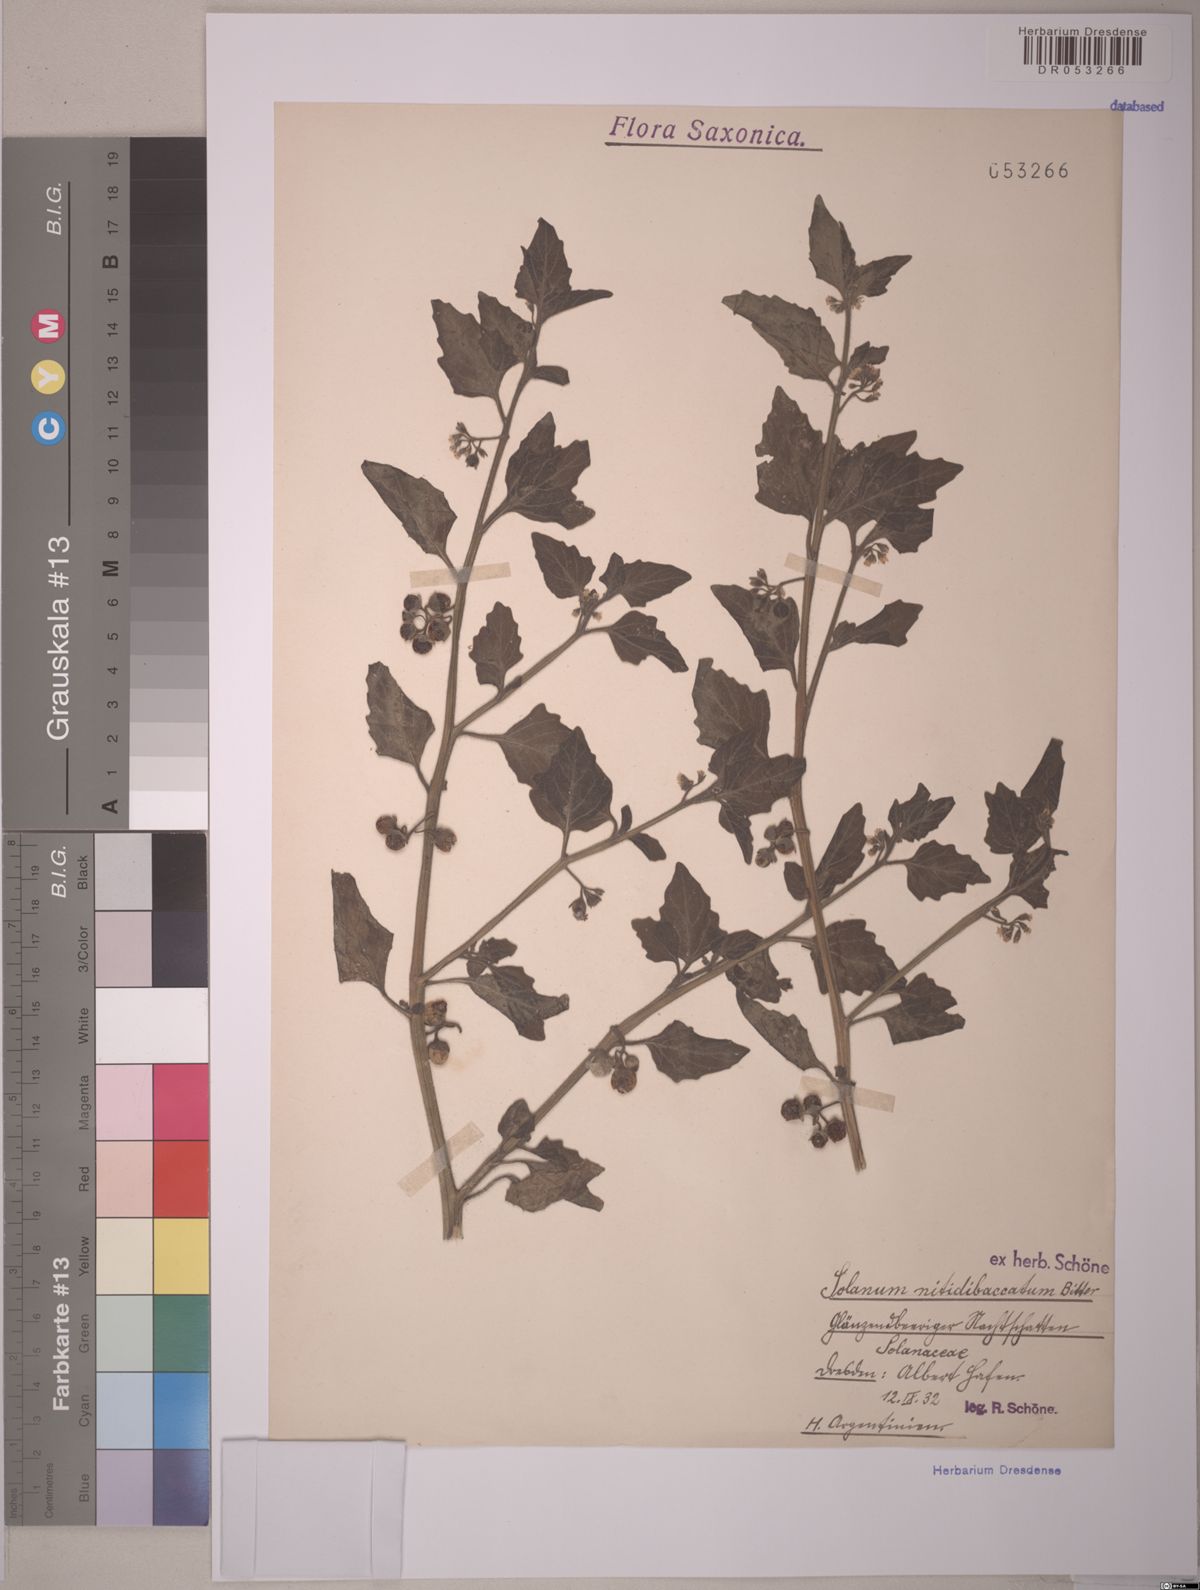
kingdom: Plantae
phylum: Tracheophyta
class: Magnoliopsida
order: Solanales
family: Solanaceae
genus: Solanum
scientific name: Solanum nitidibaccatum
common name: Hairy nightshade
